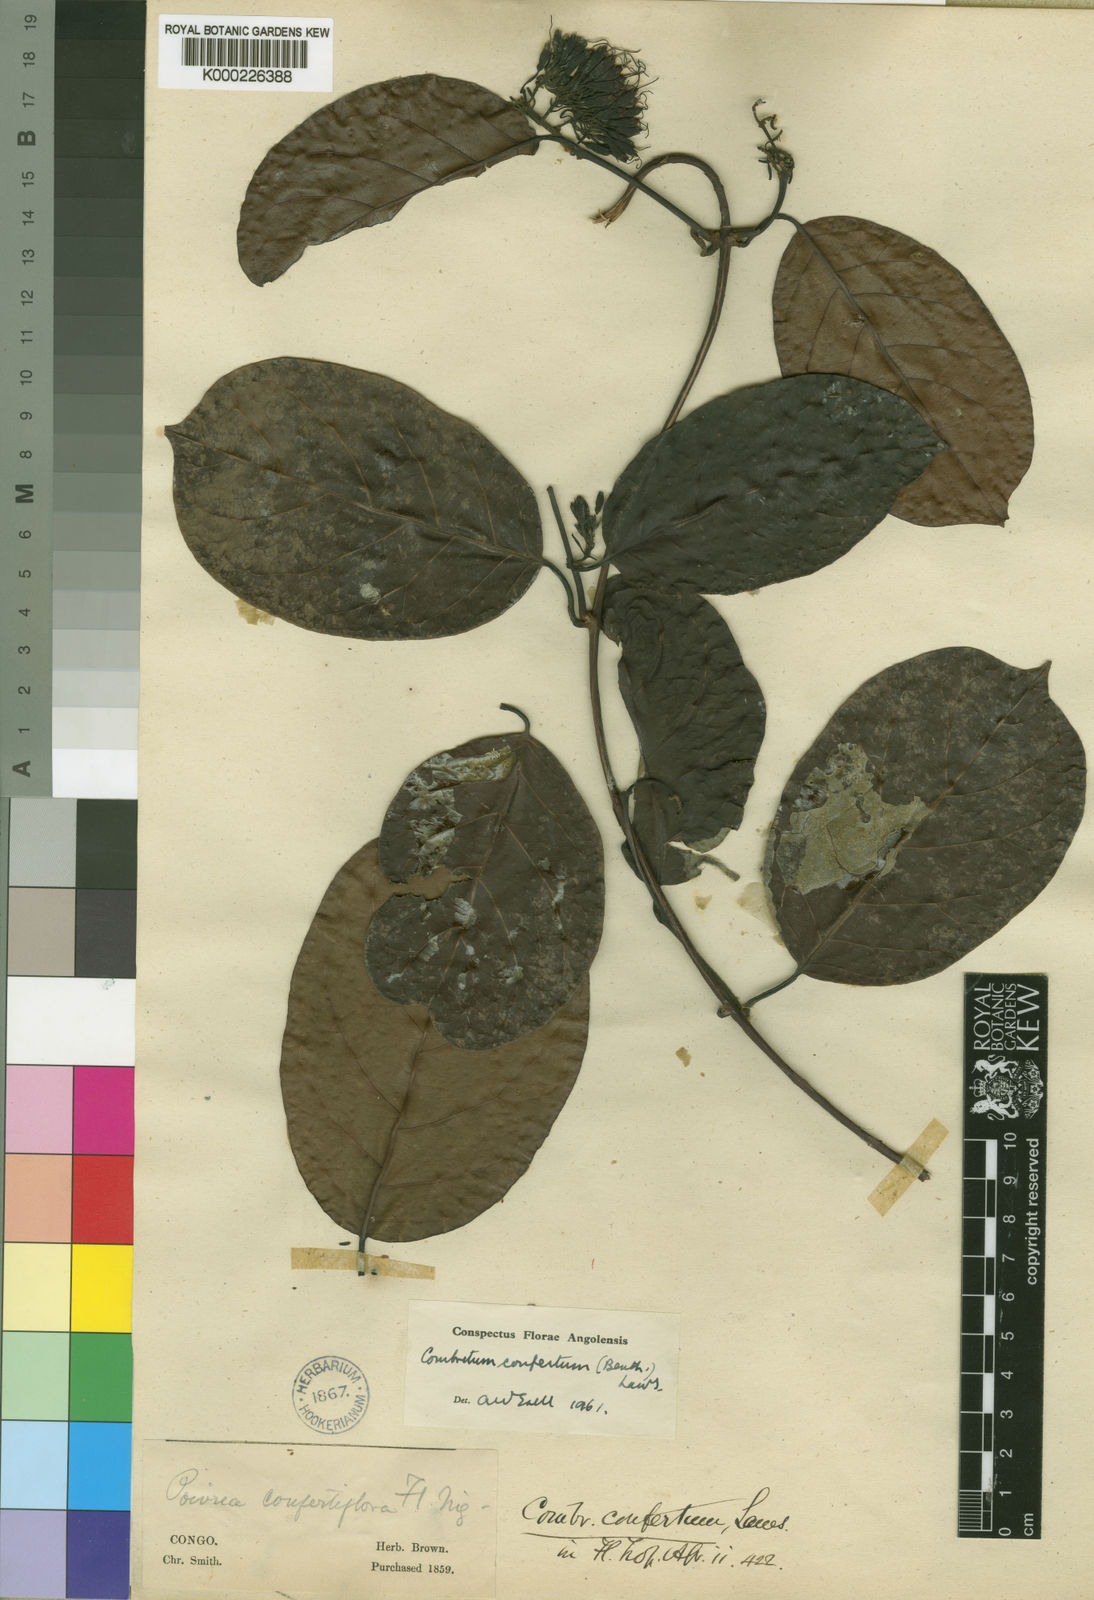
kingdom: Plantae
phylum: Tracheophyta
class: Magnoliopsida
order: Myrtales
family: Combretaceae
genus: Combretum
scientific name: Combretum confertum
